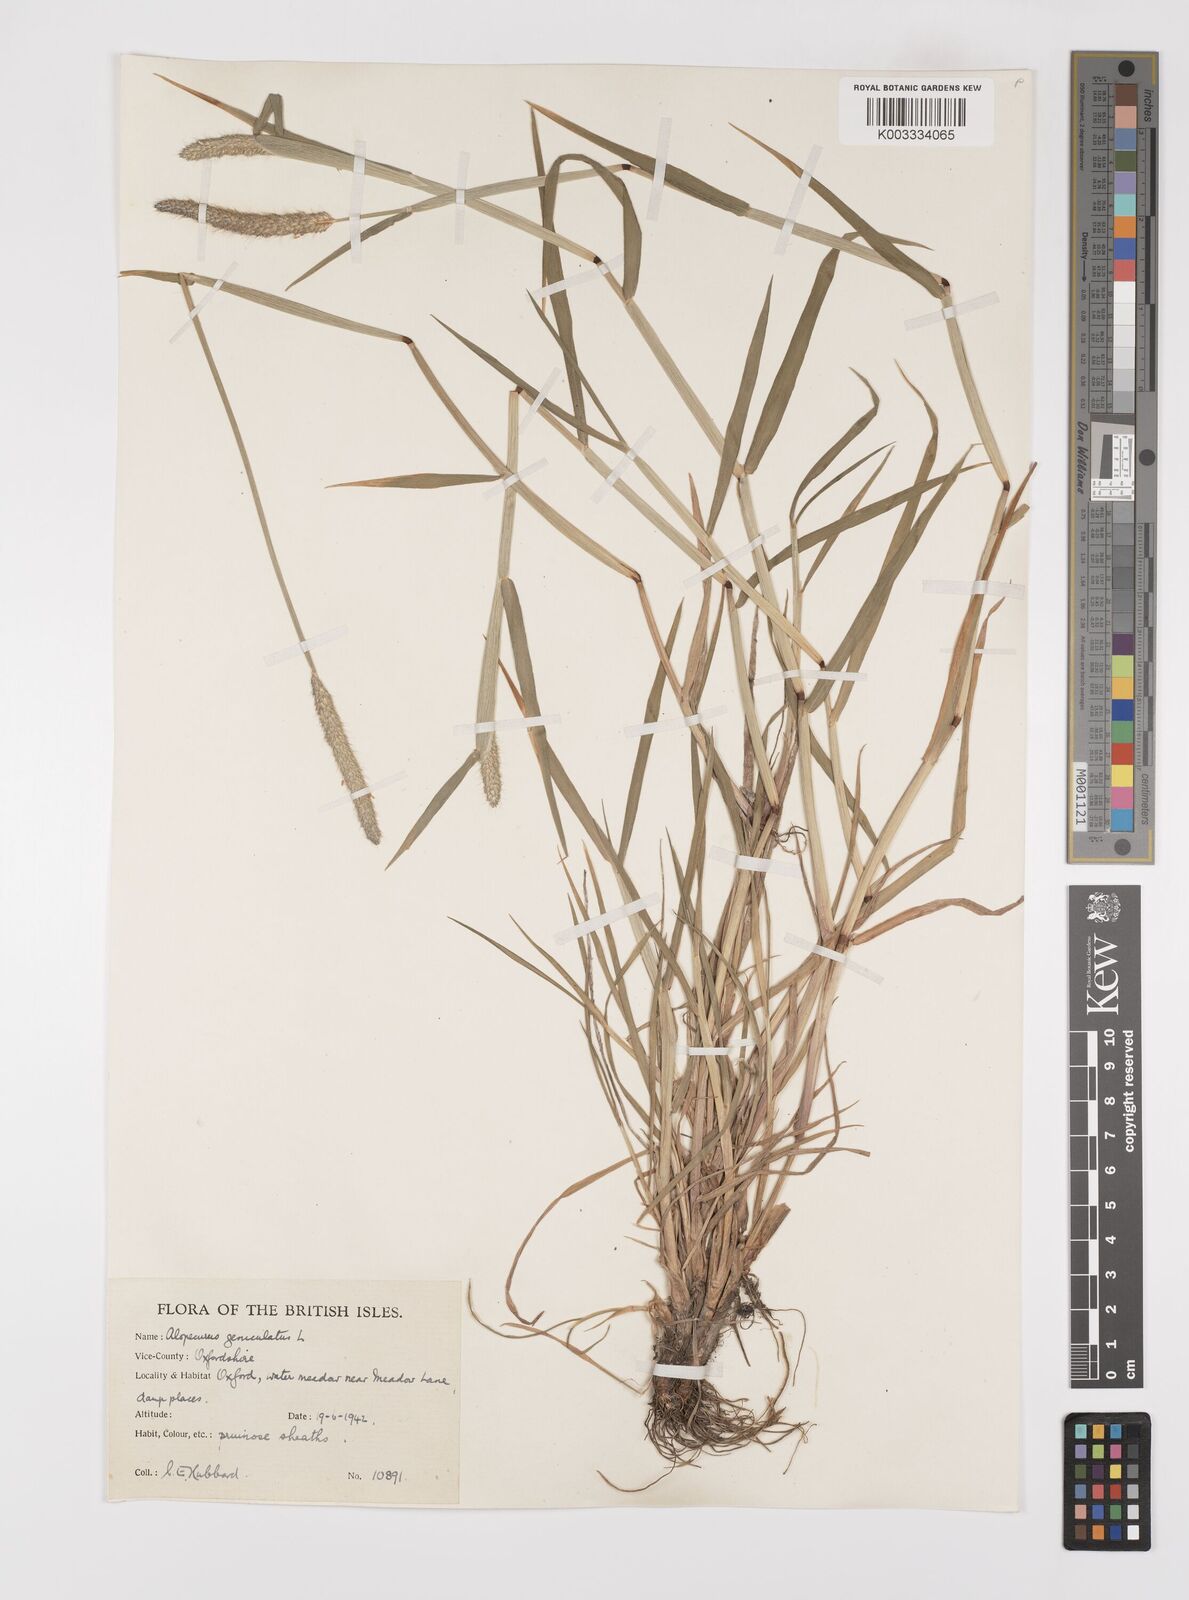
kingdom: Plantae
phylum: Tracheophyta
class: Liliopsida
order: Poales
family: Poaceae
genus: Alopecurus
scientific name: Alopecurus geniculatus
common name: Water foxtail
